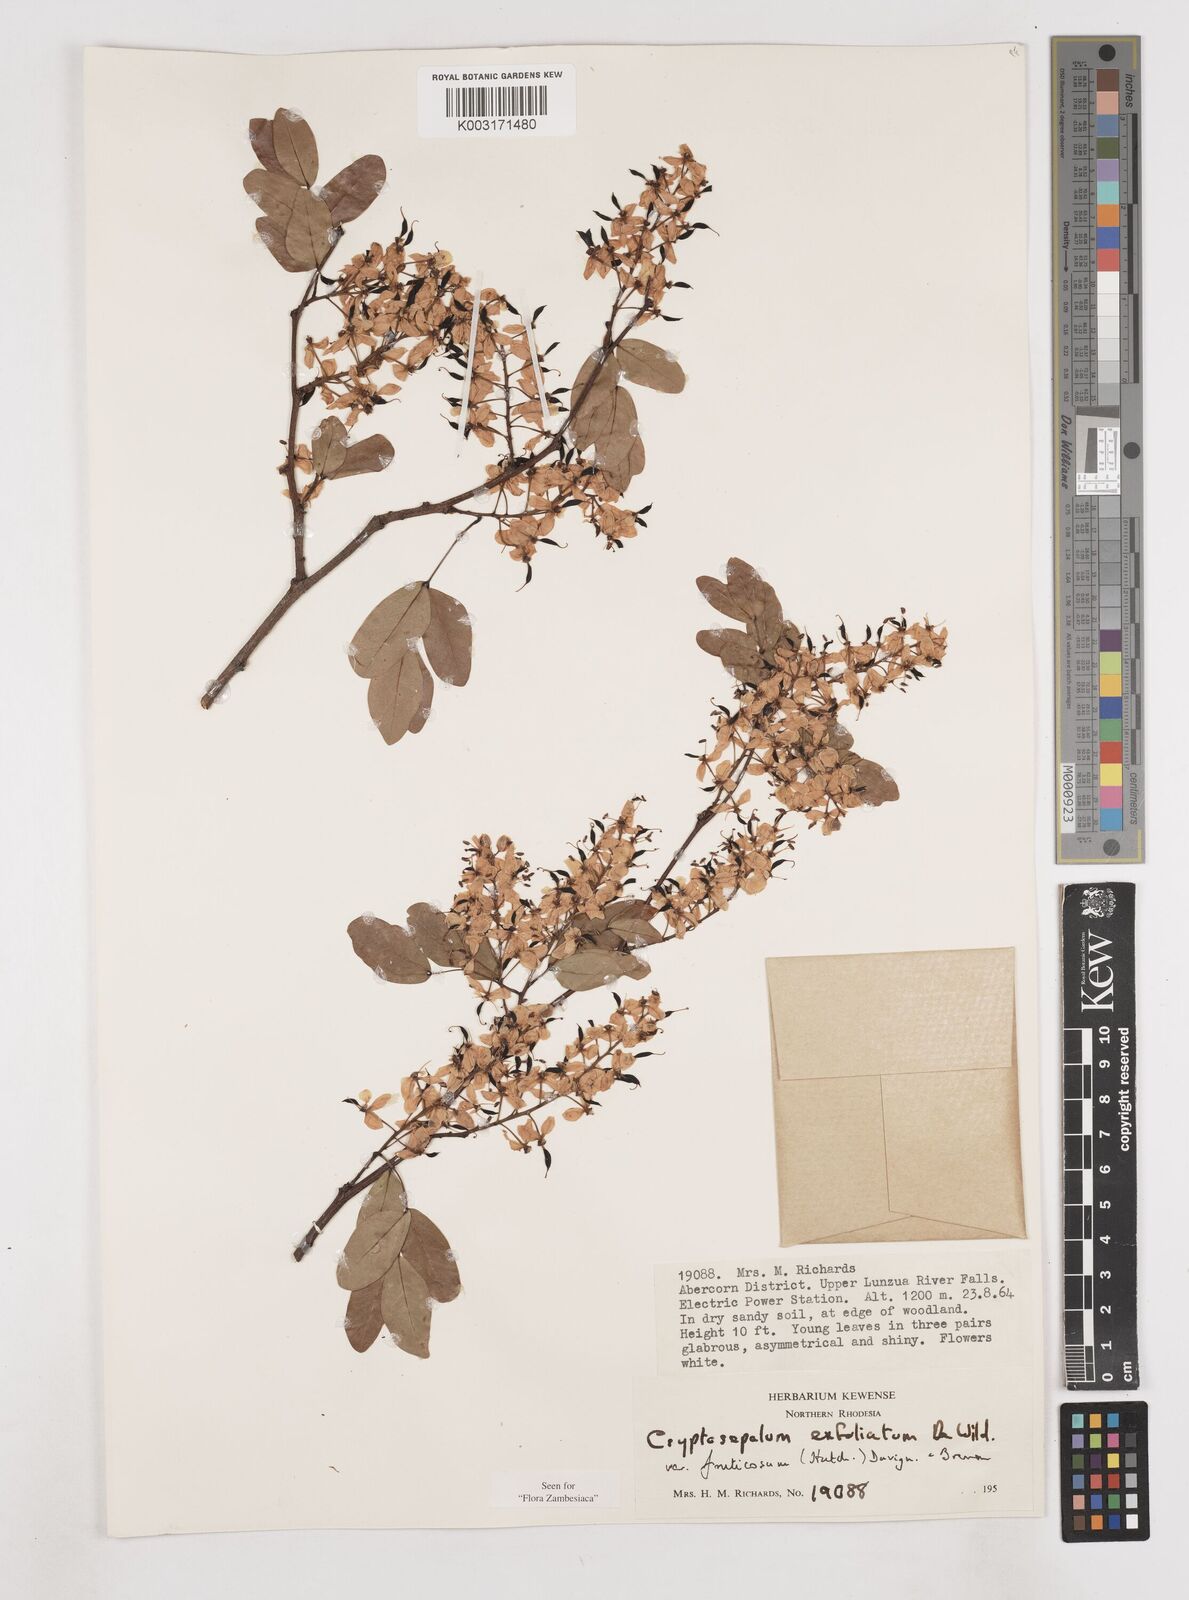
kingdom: Plantae
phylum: Tracheophyta
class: Magnoliopsida
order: Fabales
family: Fabaceae
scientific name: Fabaceae
